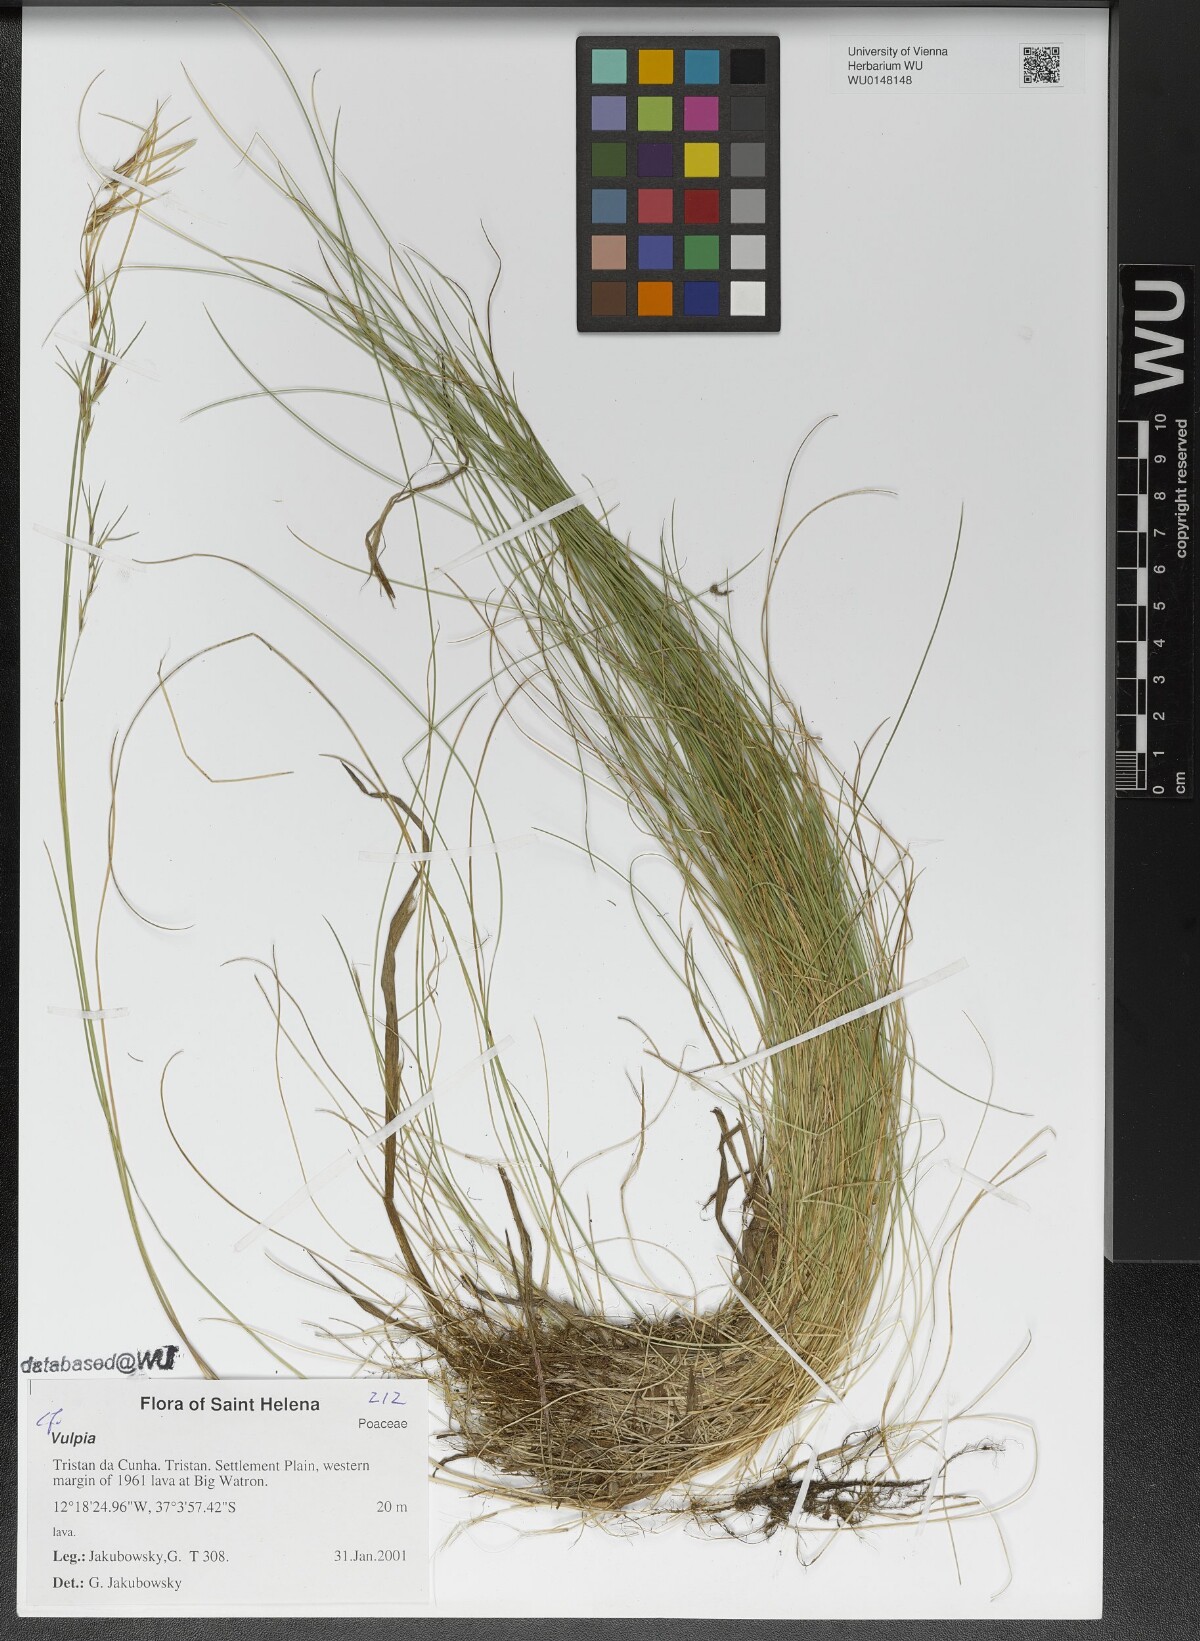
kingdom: Plantae
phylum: Tracheophyta
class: Liliopsida
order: Poales
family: Poaceae
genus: Festuca
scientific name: Festuca
